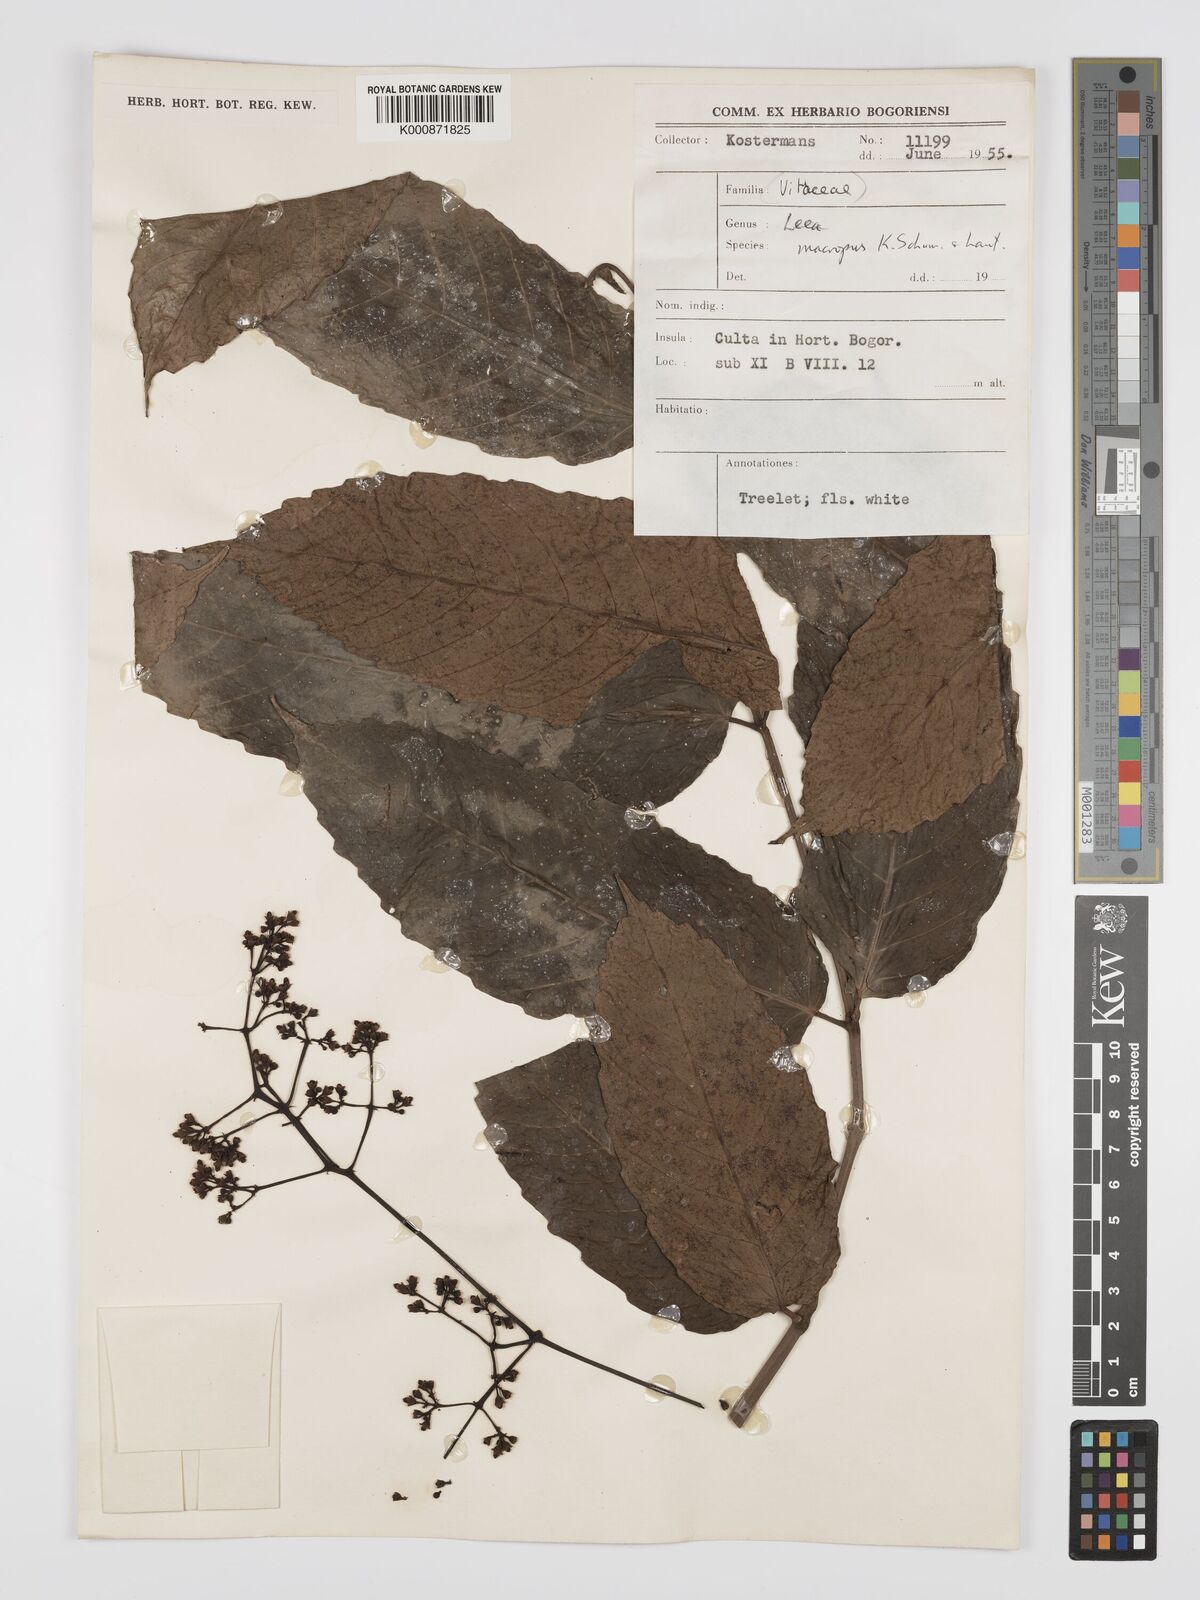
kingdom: Plantae
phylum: Tracheophyta
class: Magnoliopsida
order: Vitales
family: Vitaceae
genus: Leea
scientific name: Leea macropus
